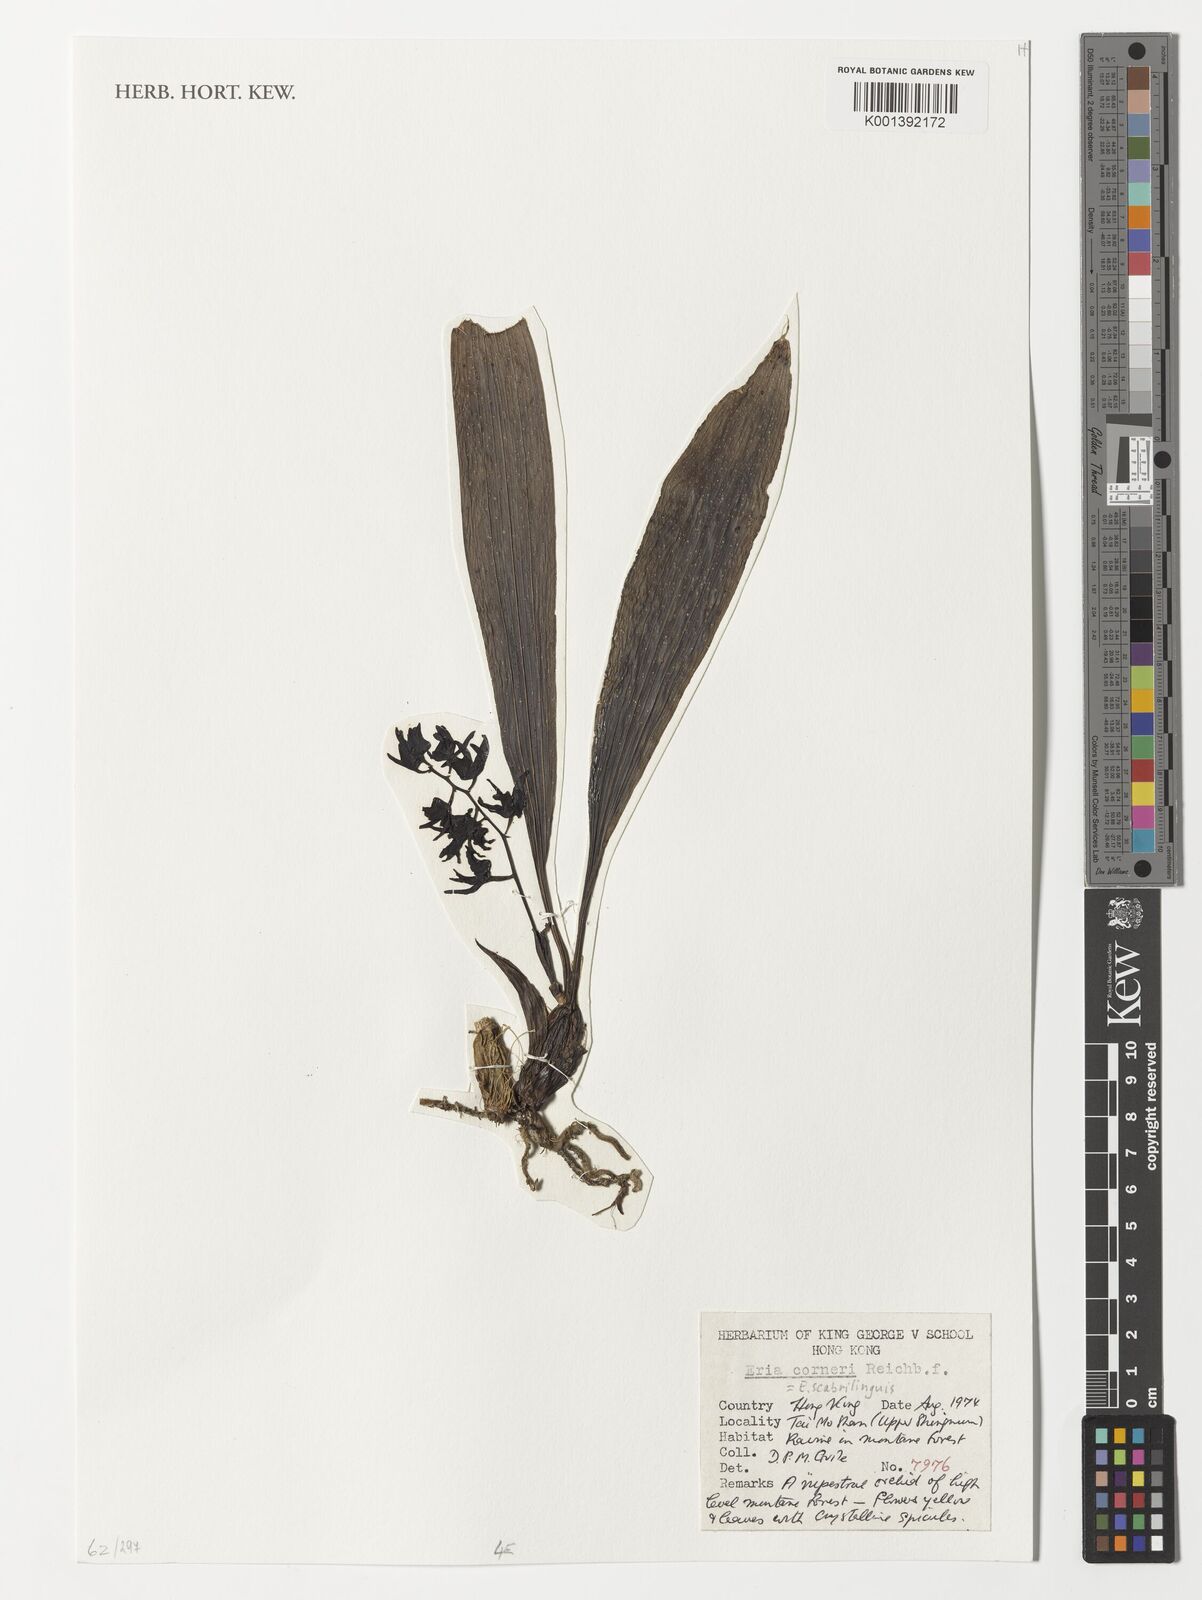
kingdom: Plantae
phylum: Tracheophyta
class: Liliopsida
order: Asparagales
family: Orchidaceae
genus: Eria
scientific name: Eria scabrilinguis
